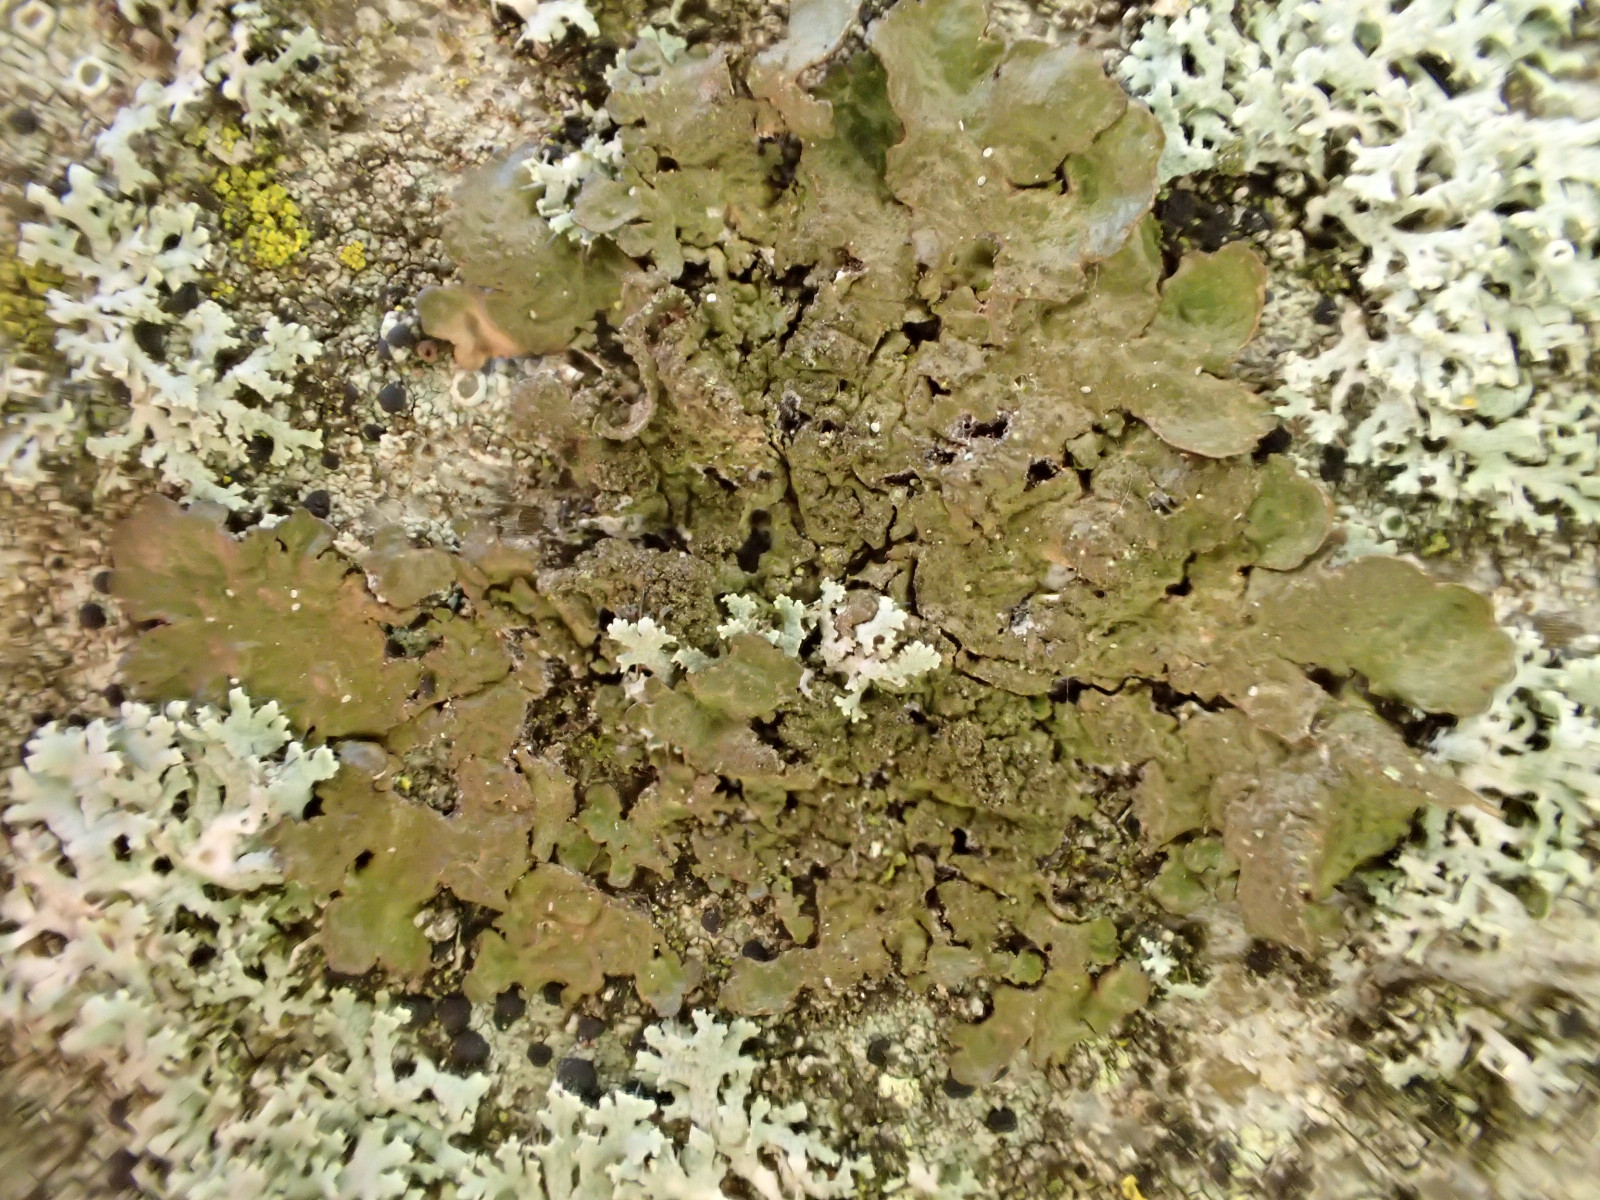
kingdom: Fungi
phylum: Ascomycota
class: Lecanoromycetes
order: Lecanorales
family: Parmeliaceae
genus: Melanelixia
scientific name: Melanelixia subaurifera
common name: guldpudret skållav
